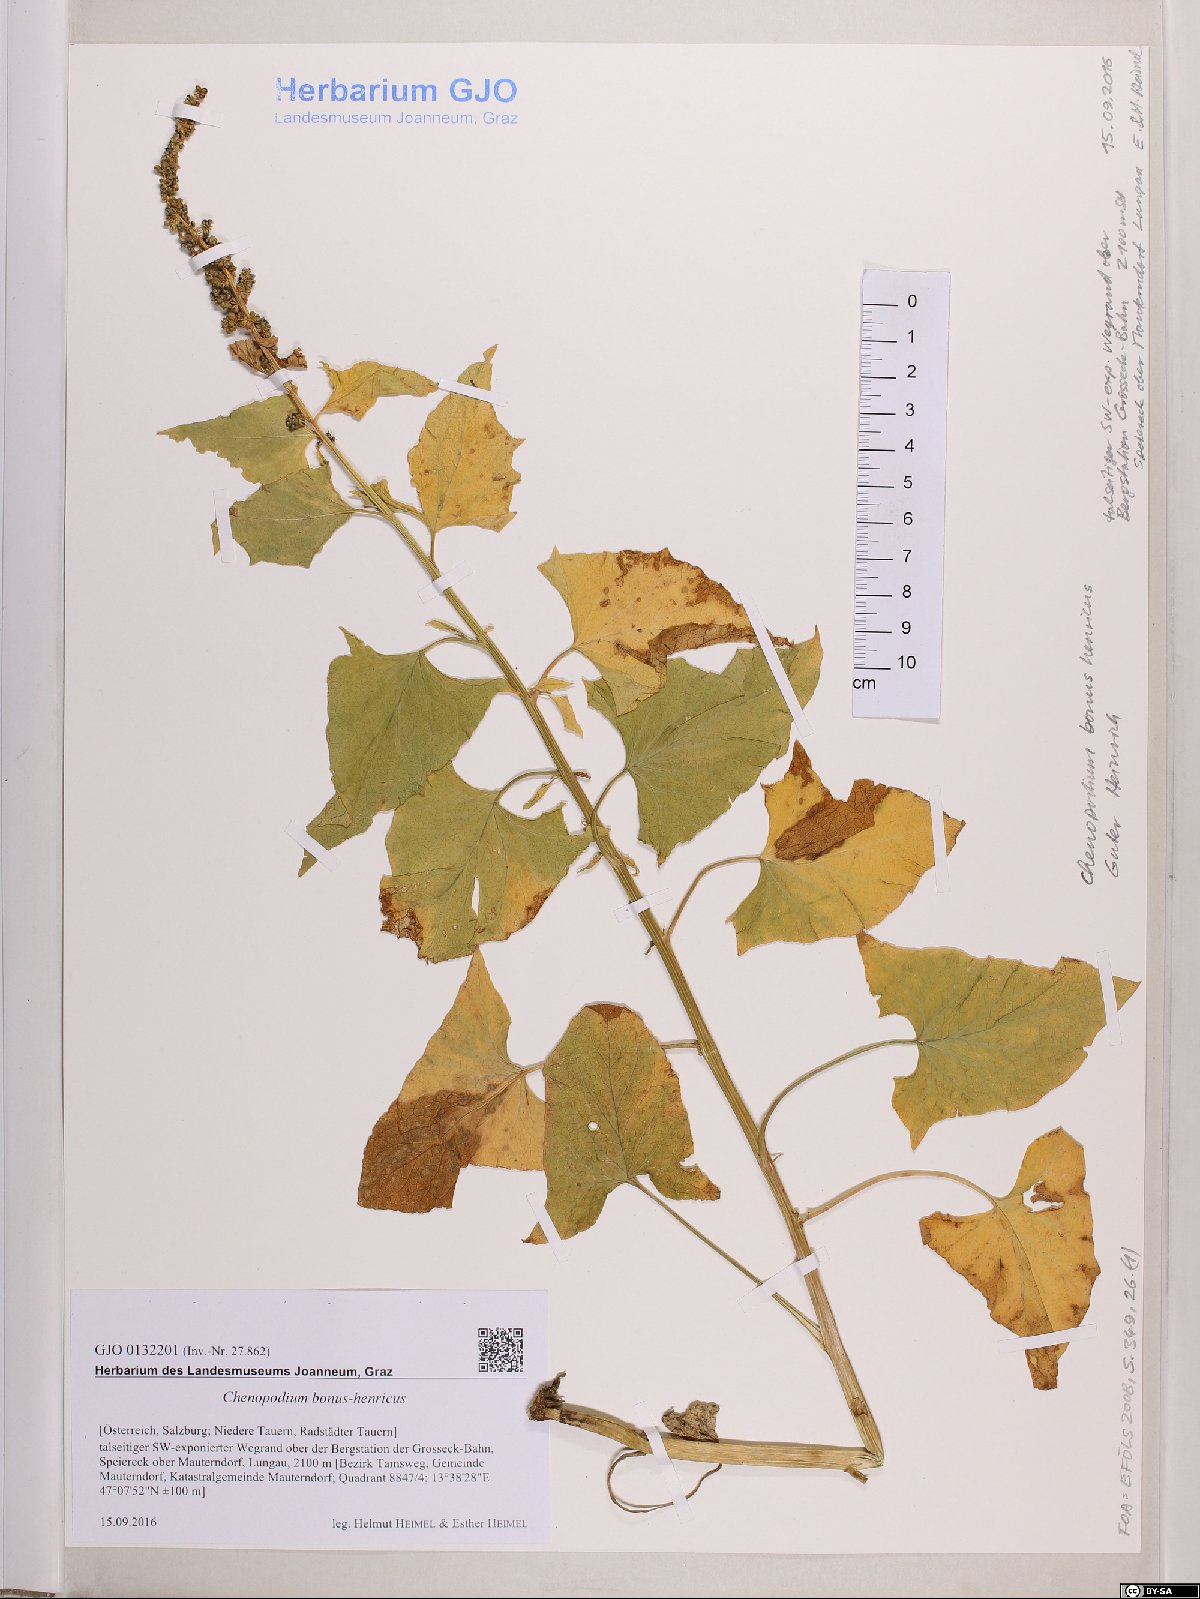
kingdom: Plantae
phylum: Tracheophyta
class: Magnoliopsida
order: Caryophyllales
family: Amaranthaceae
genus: Blitum
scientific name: Blitum bonus-henricus
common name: Good king henry
